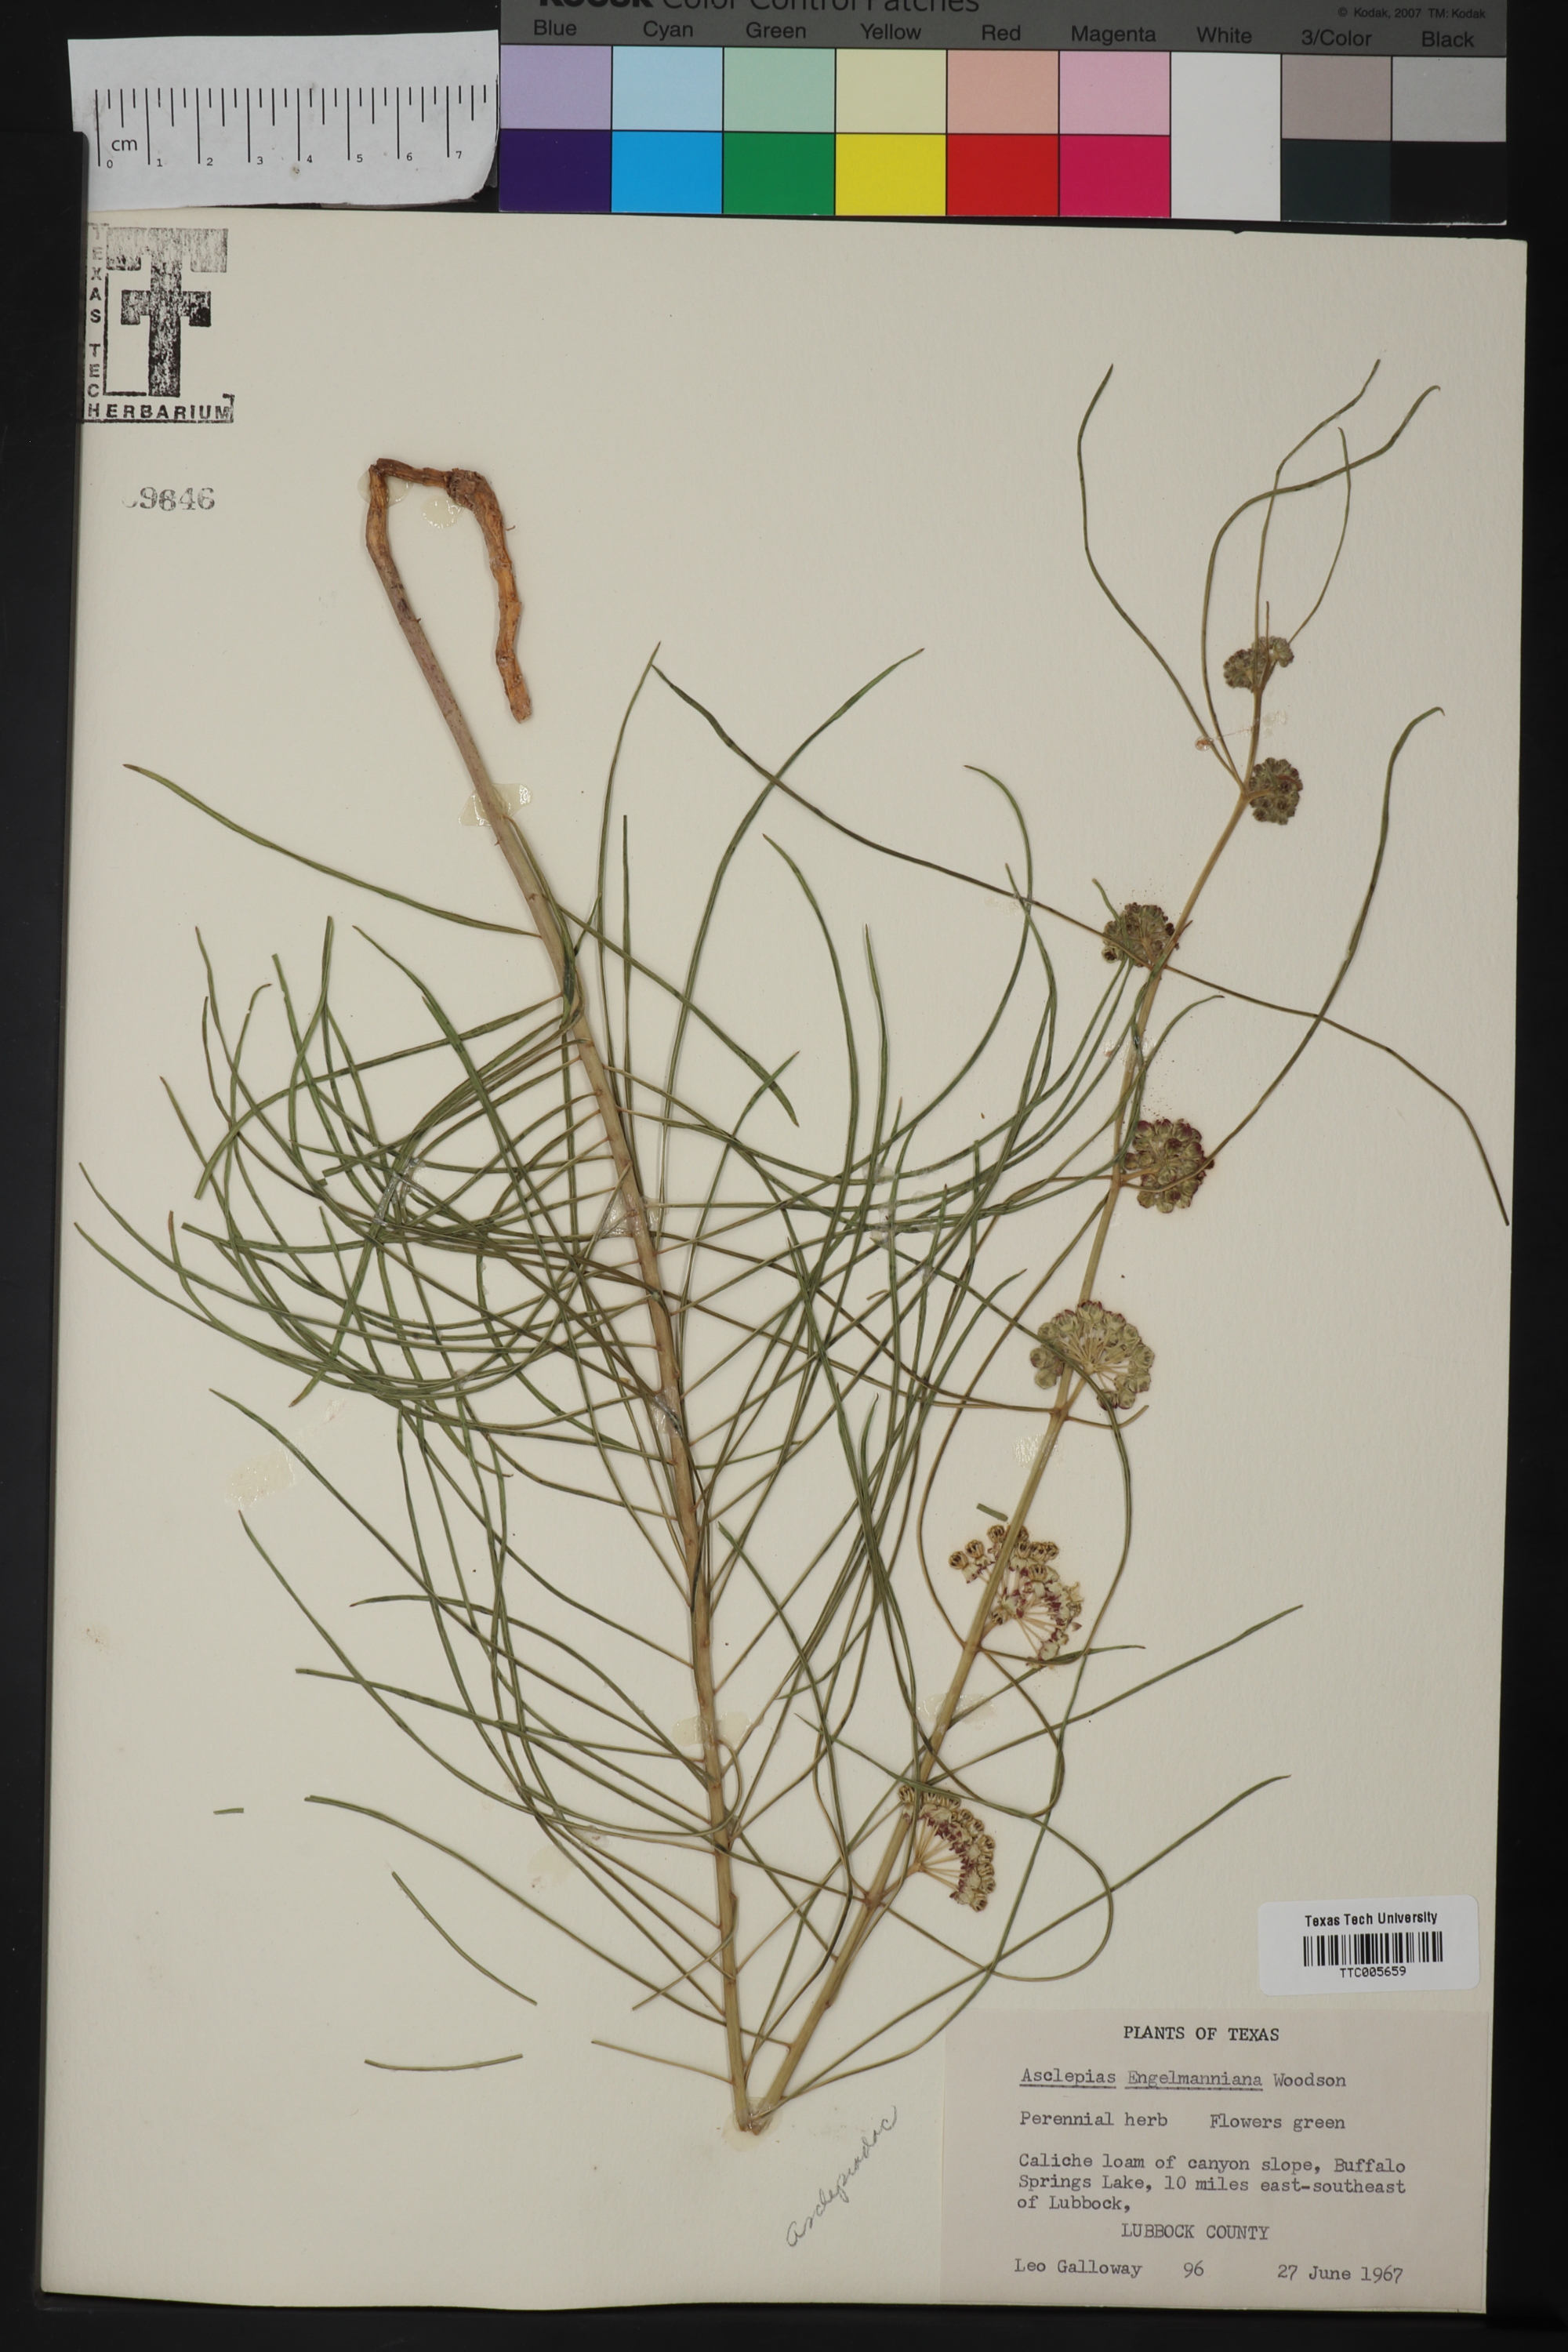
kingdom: Plantae
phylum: Tracheophyta
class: Magnoliopsida
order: Gentianales
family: Apocynaceae
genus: Asclepias
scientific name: Asclepias engelmanniana
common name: Engelmann's milkweed
